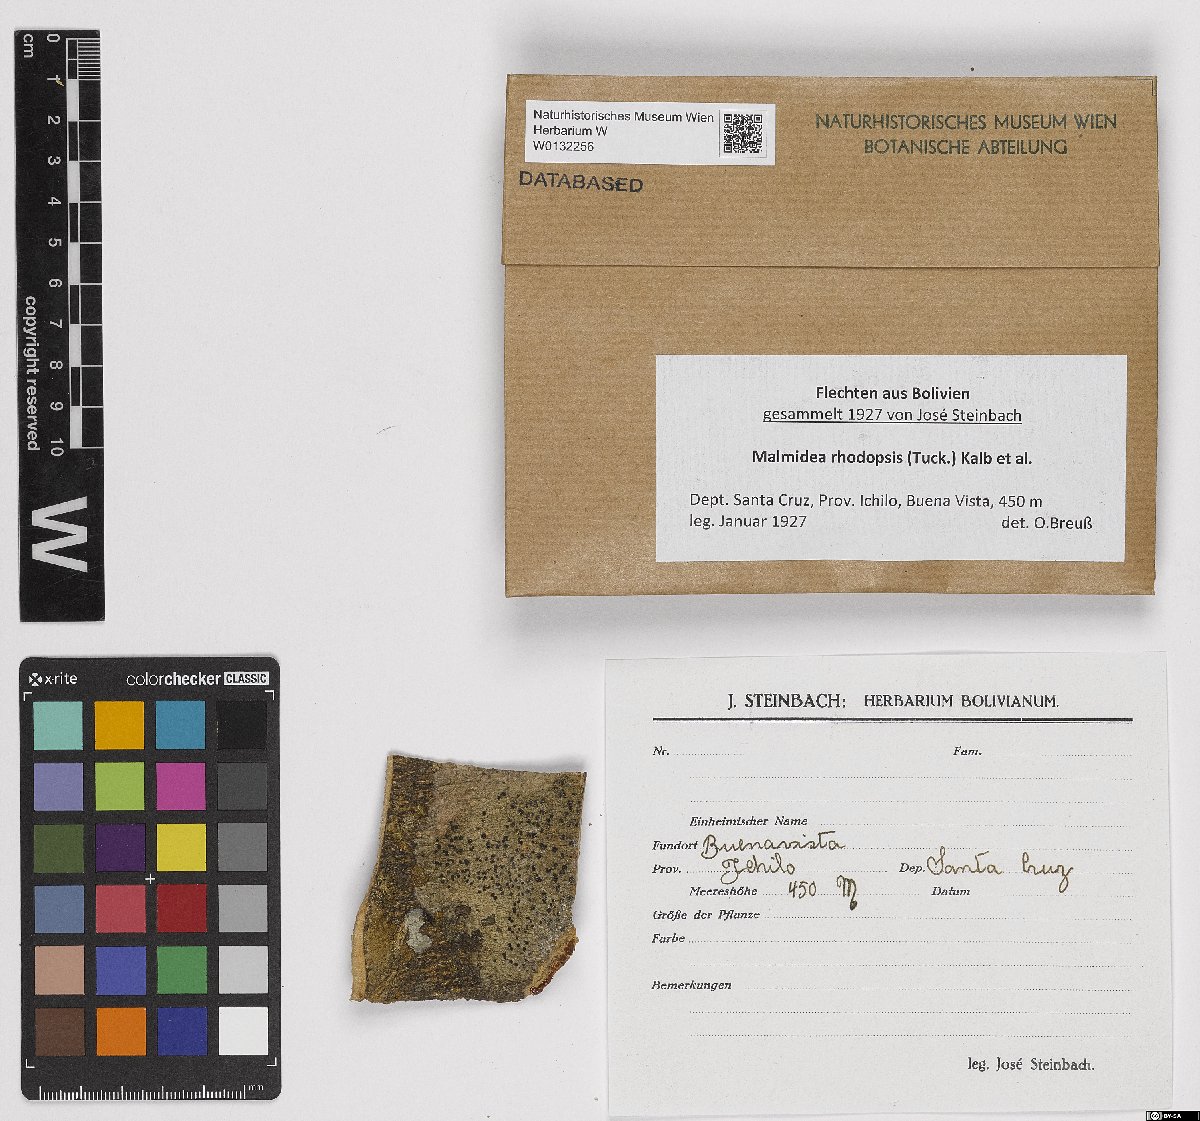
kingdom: Fungi
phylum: Ascomycota
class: Lecanoromycetes
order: Lecanorales
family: Malmideaceae
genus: Malmidea
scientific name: Malmidea rhodopsis
